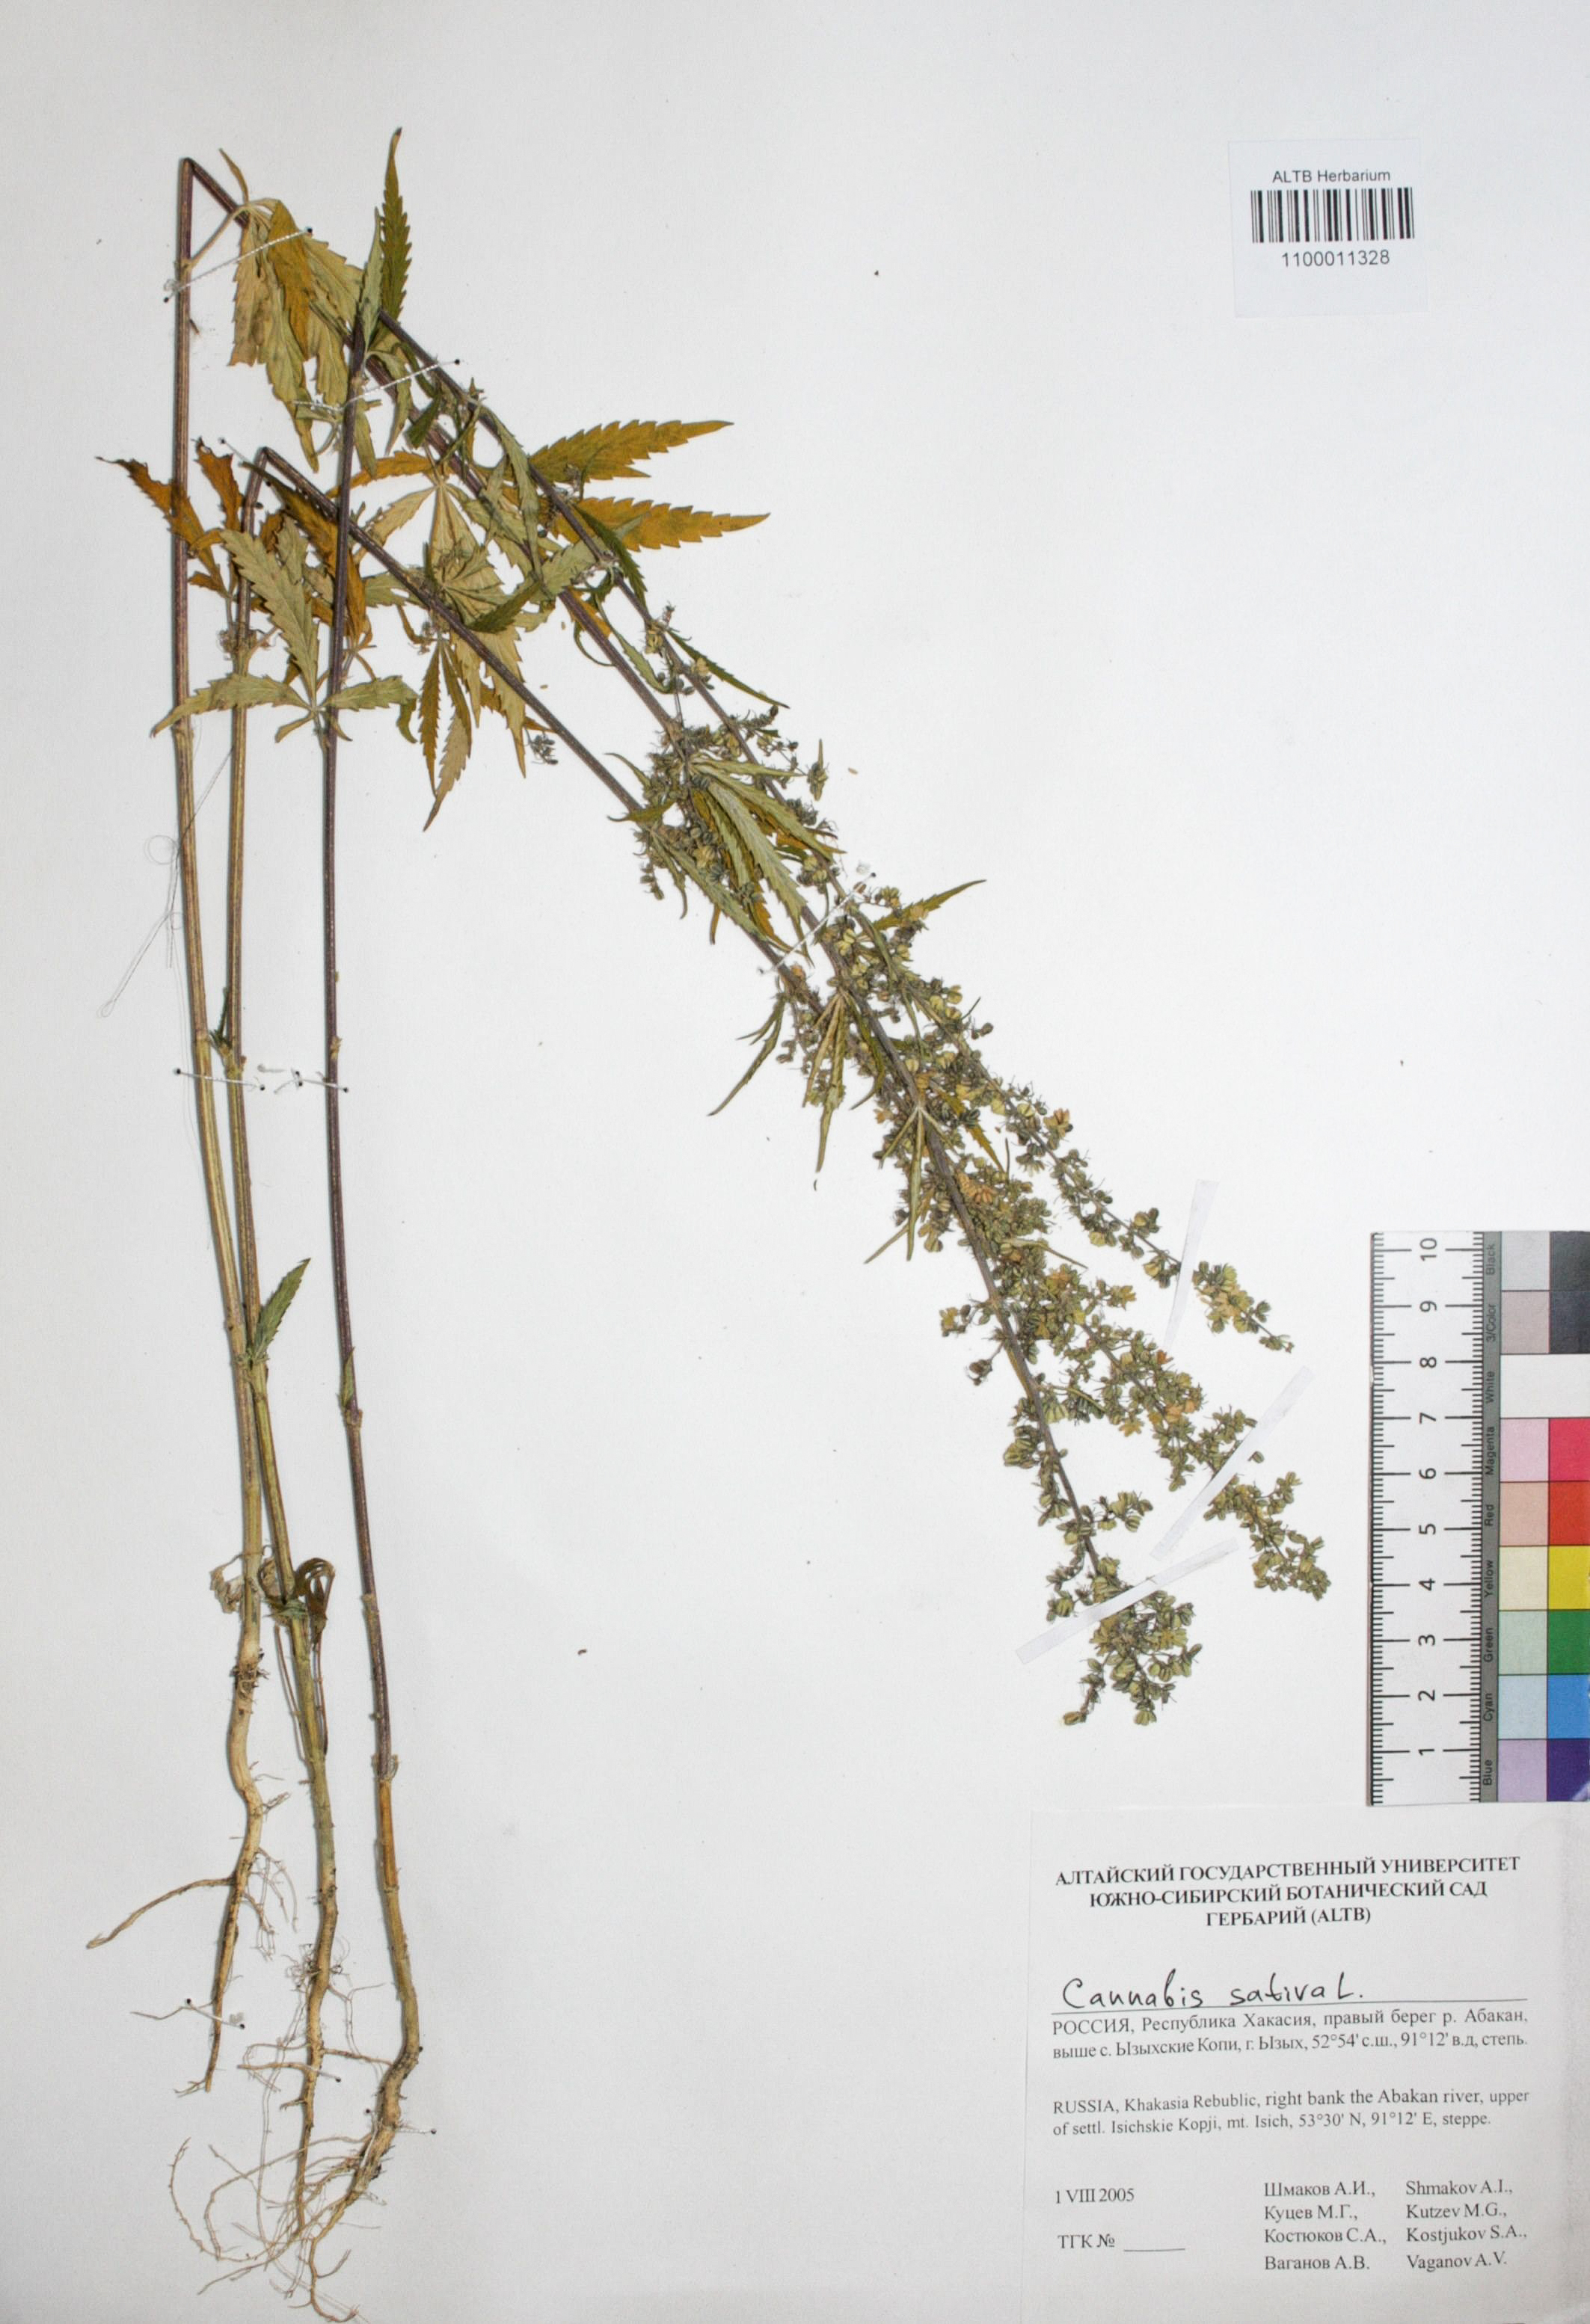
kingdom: Plantae
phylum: Tracheophyta
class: Magnoliopsida
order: Rosales
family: Cannabaceae
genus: Cannabis
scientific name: Cannabis sativa
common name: Hemp
